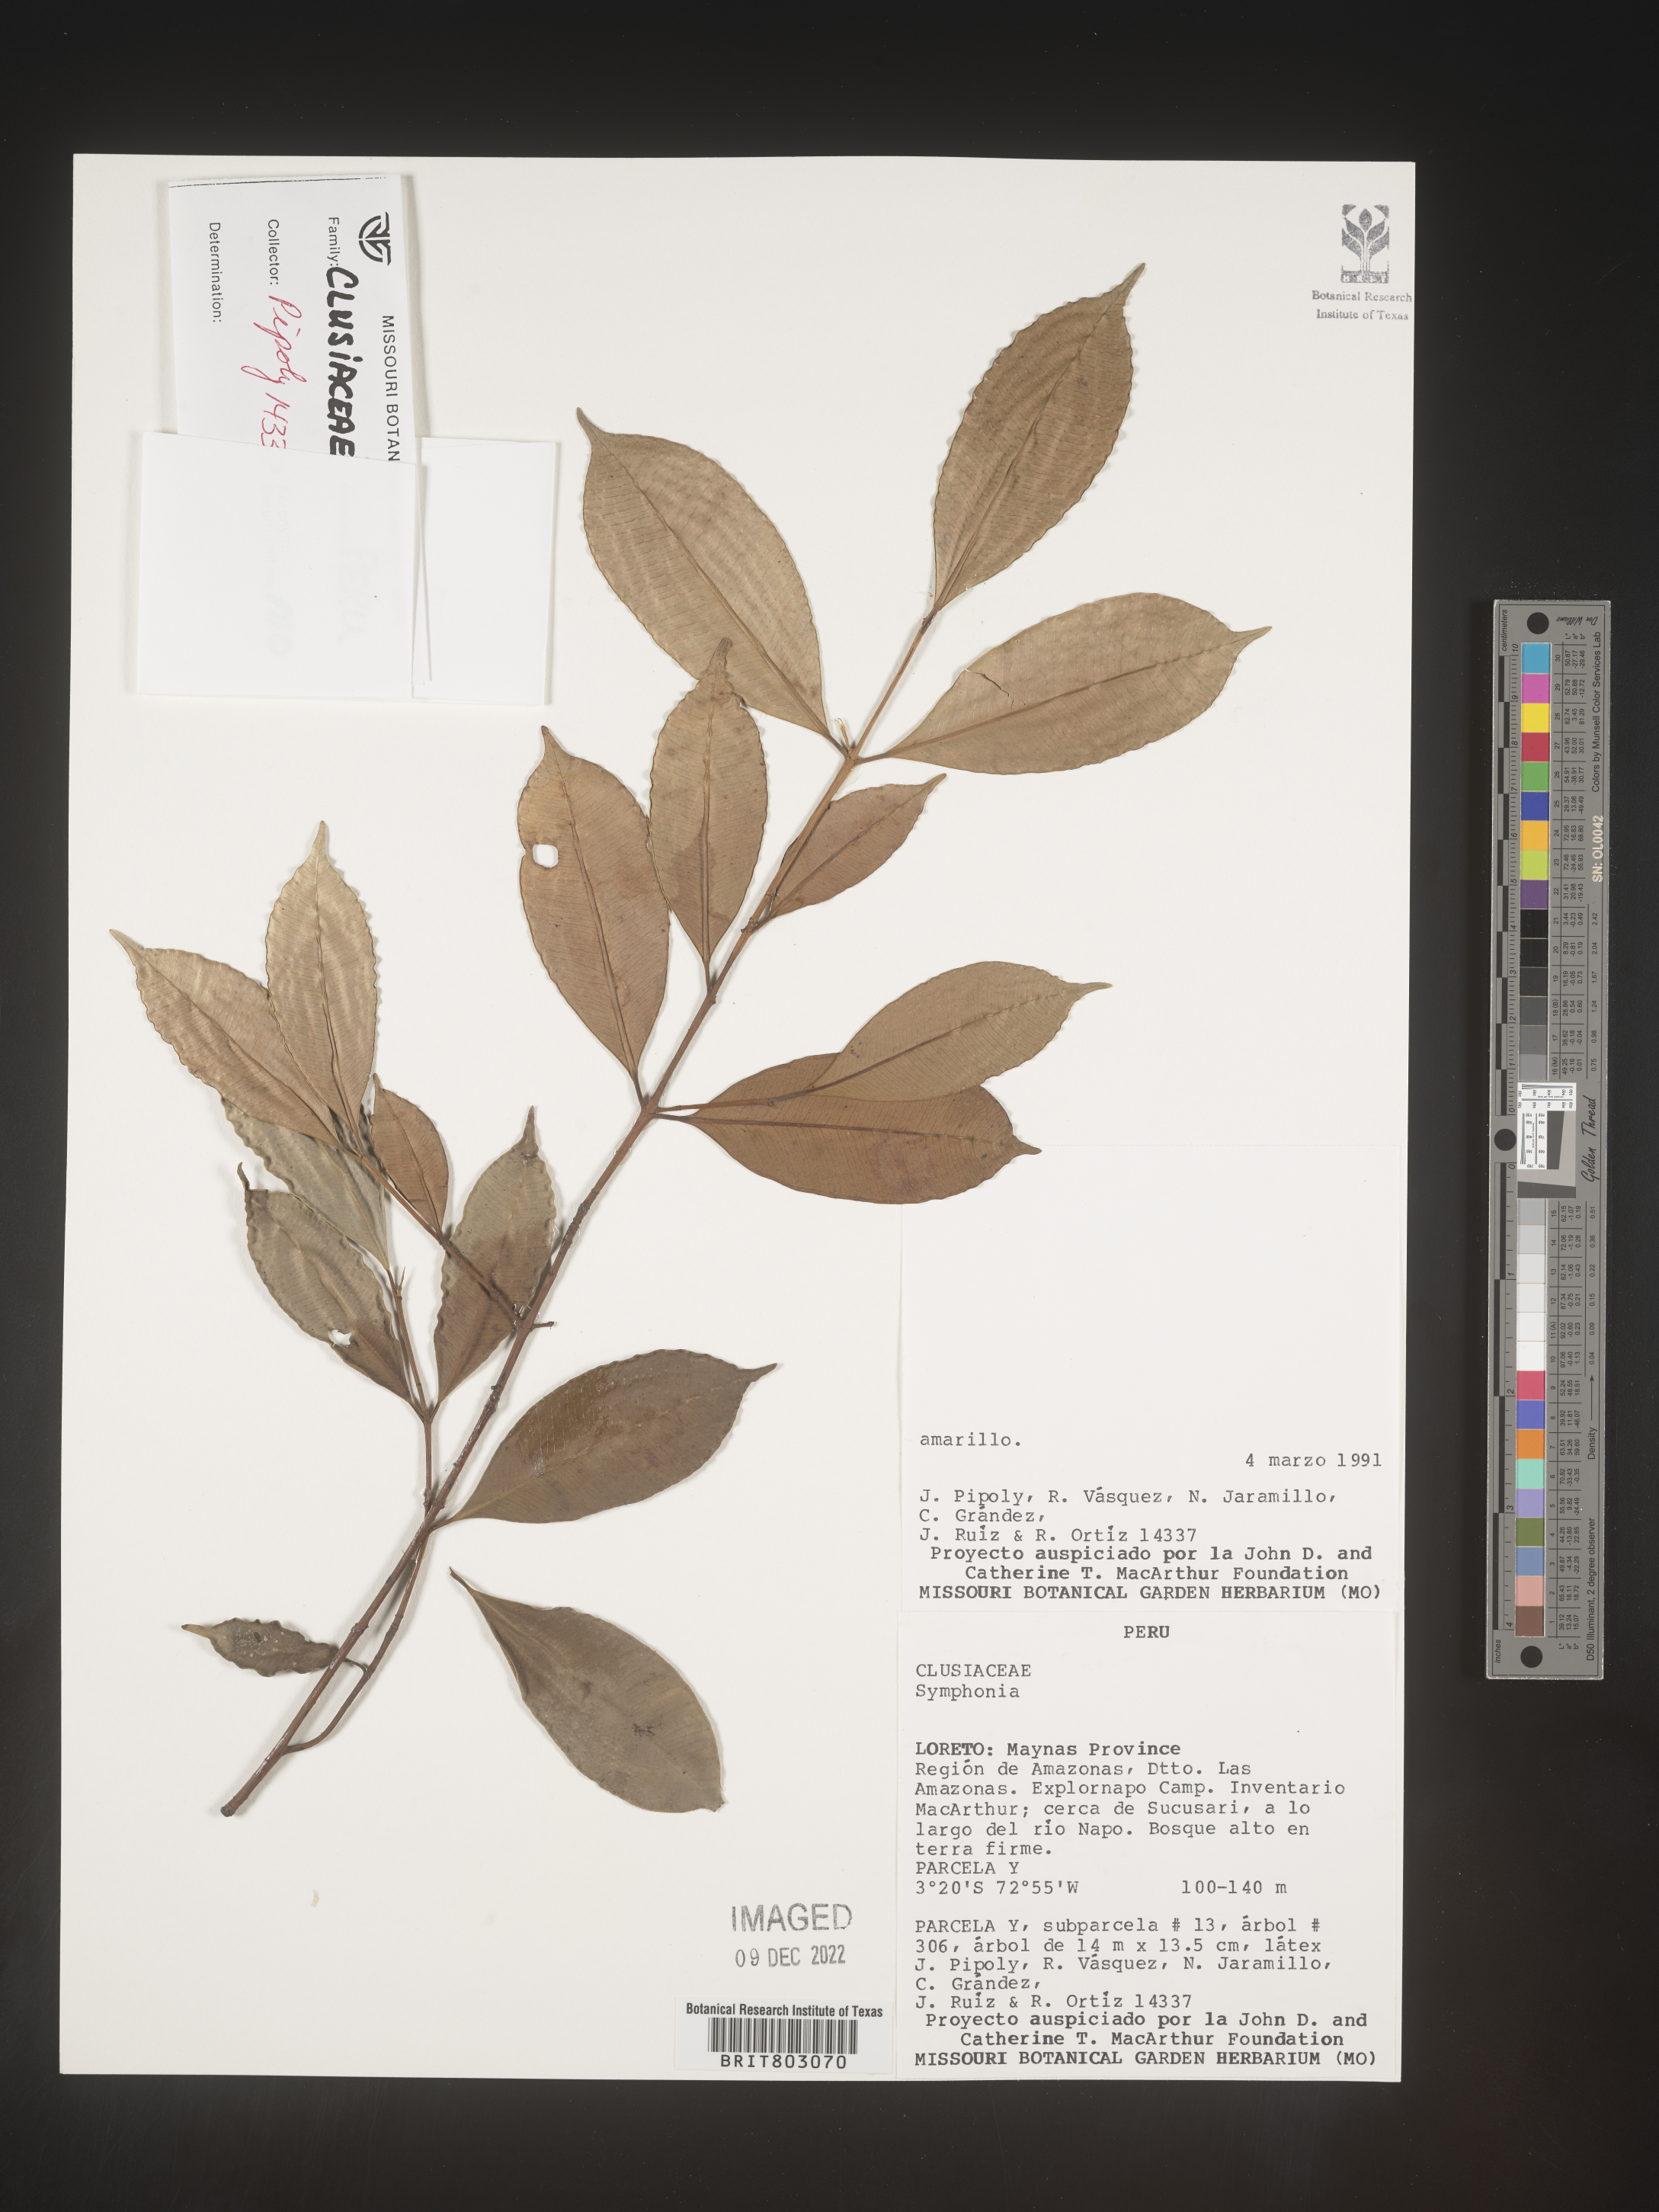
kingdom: Plantae
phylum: Tracheophyta
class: Magnoliopsida
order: Malpighiales
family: Clusiaceae
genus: Symphonia
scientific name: Symphonia
